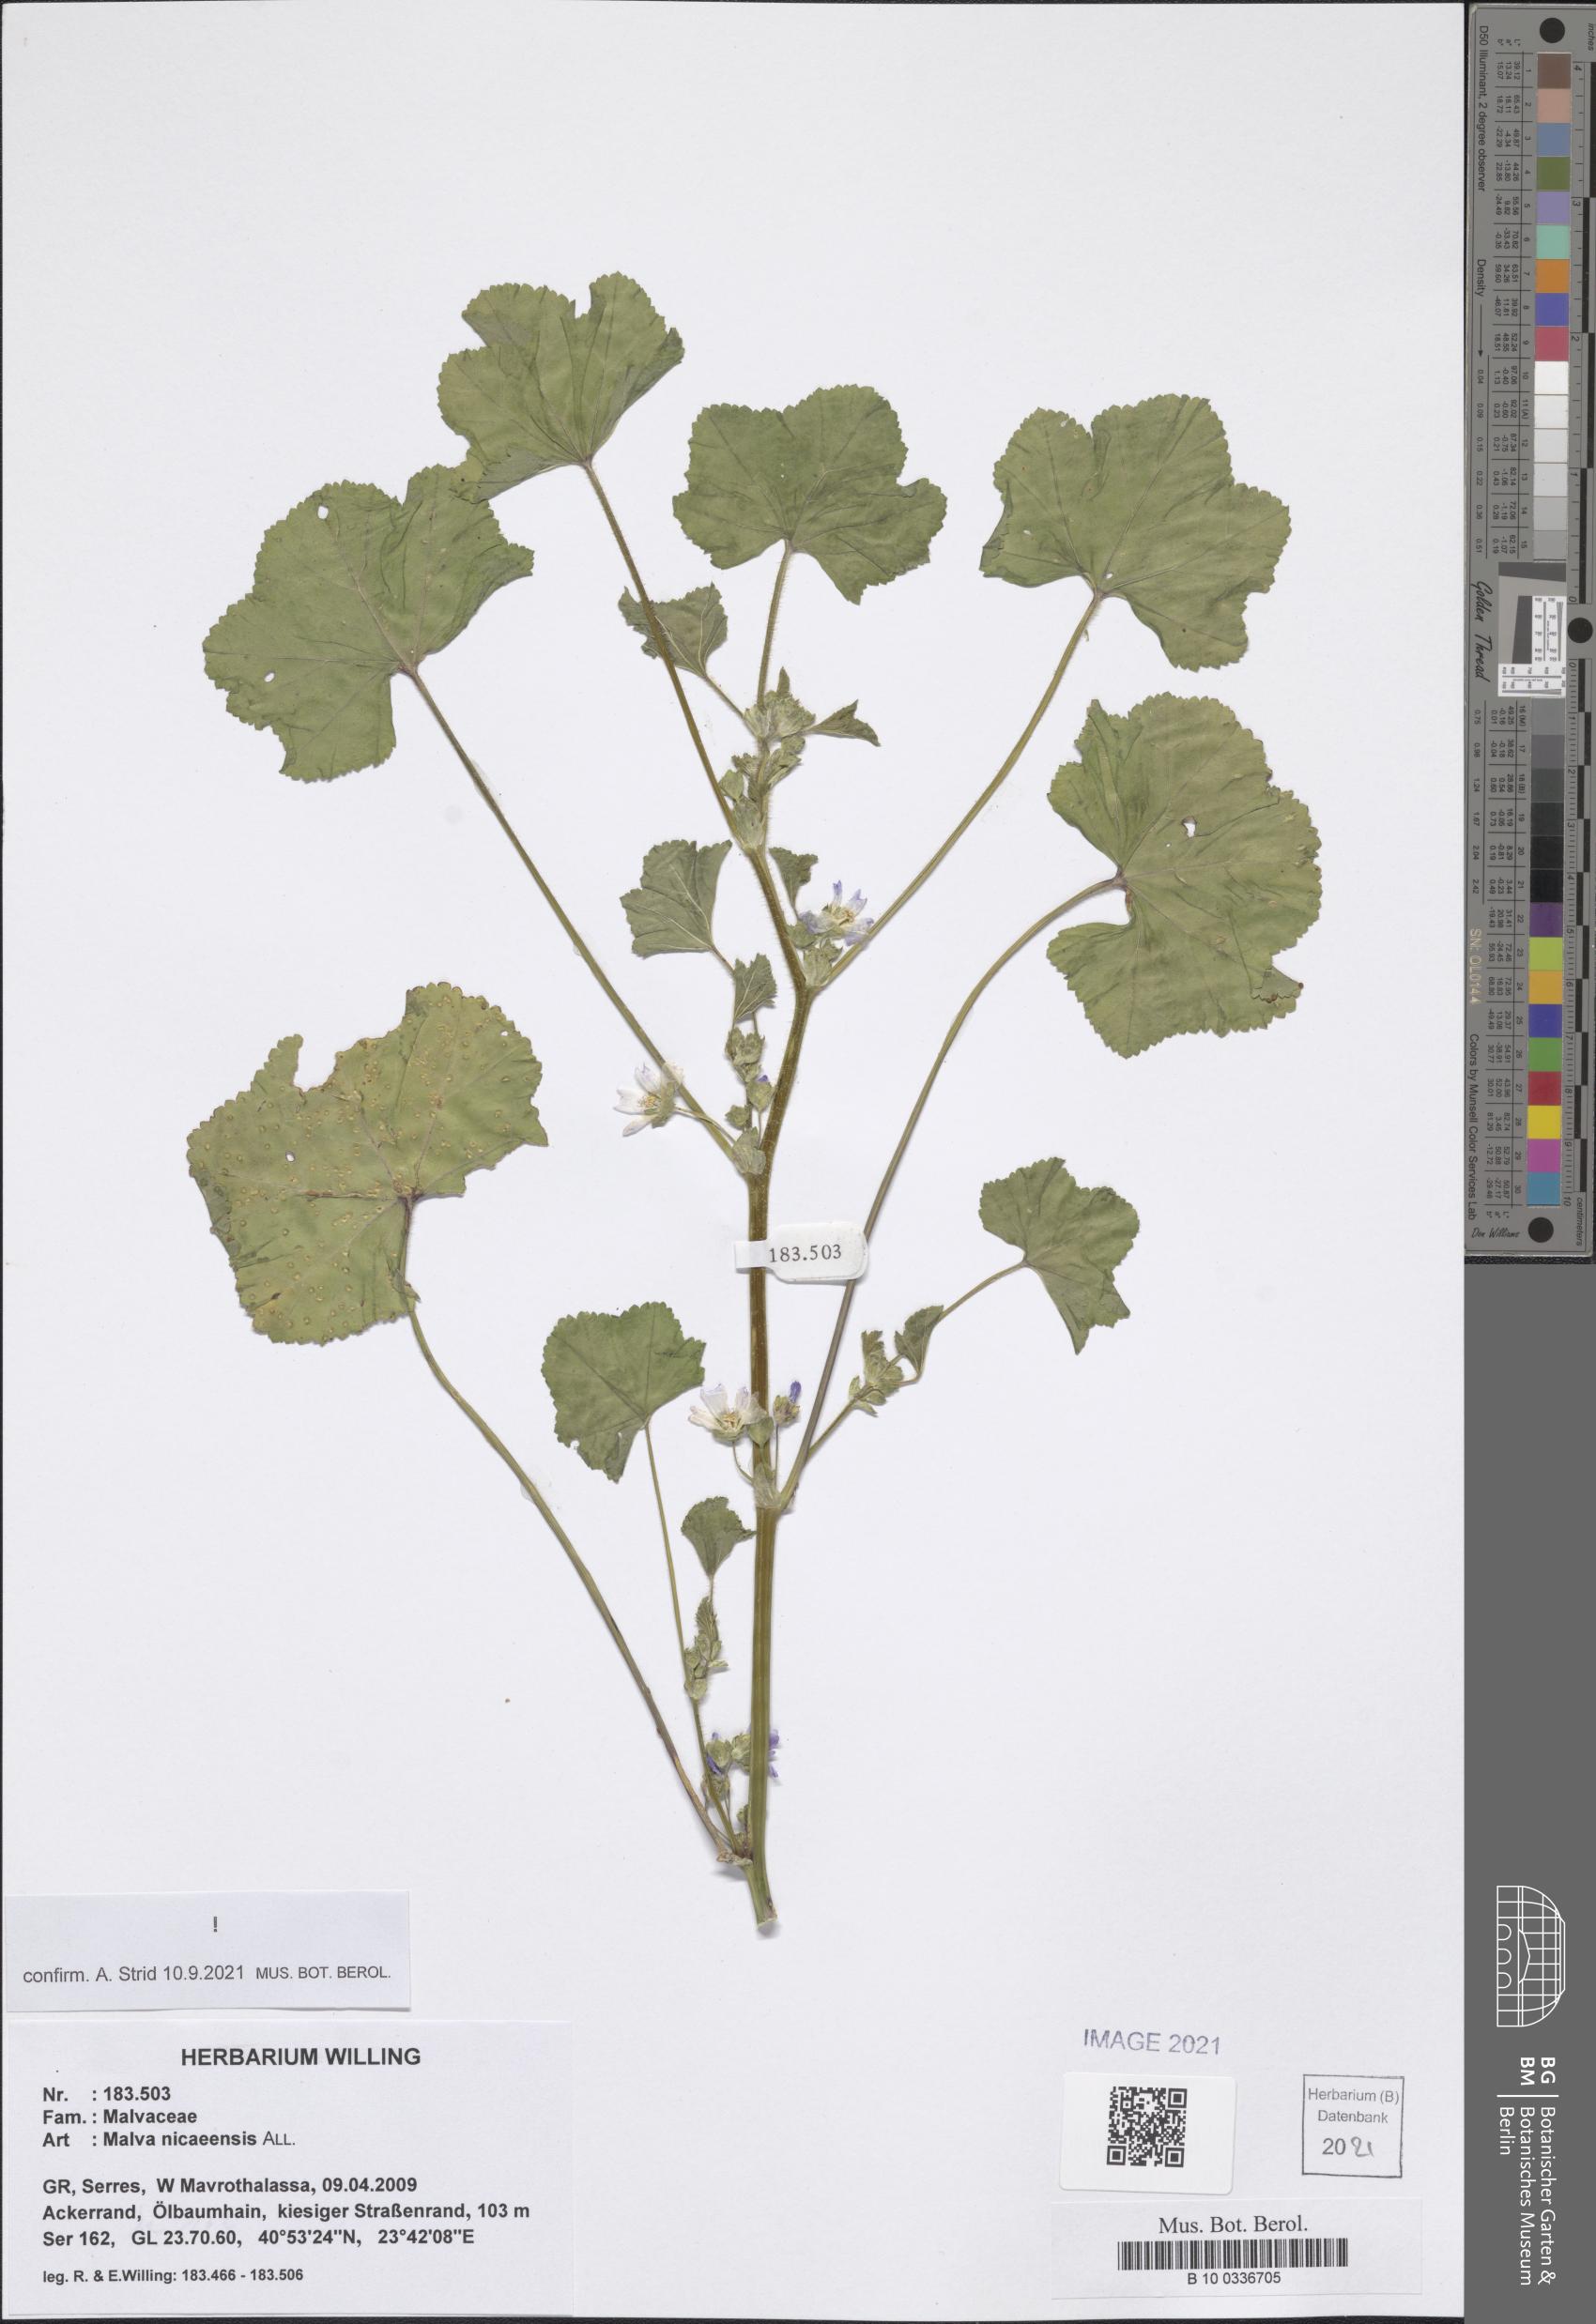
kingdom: Plantae
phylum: Tracheophyta
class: Magnoliopsida
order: Malvales
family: Malvaceae
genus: Malva
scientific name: Malva nicaeensis
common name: French mallow
